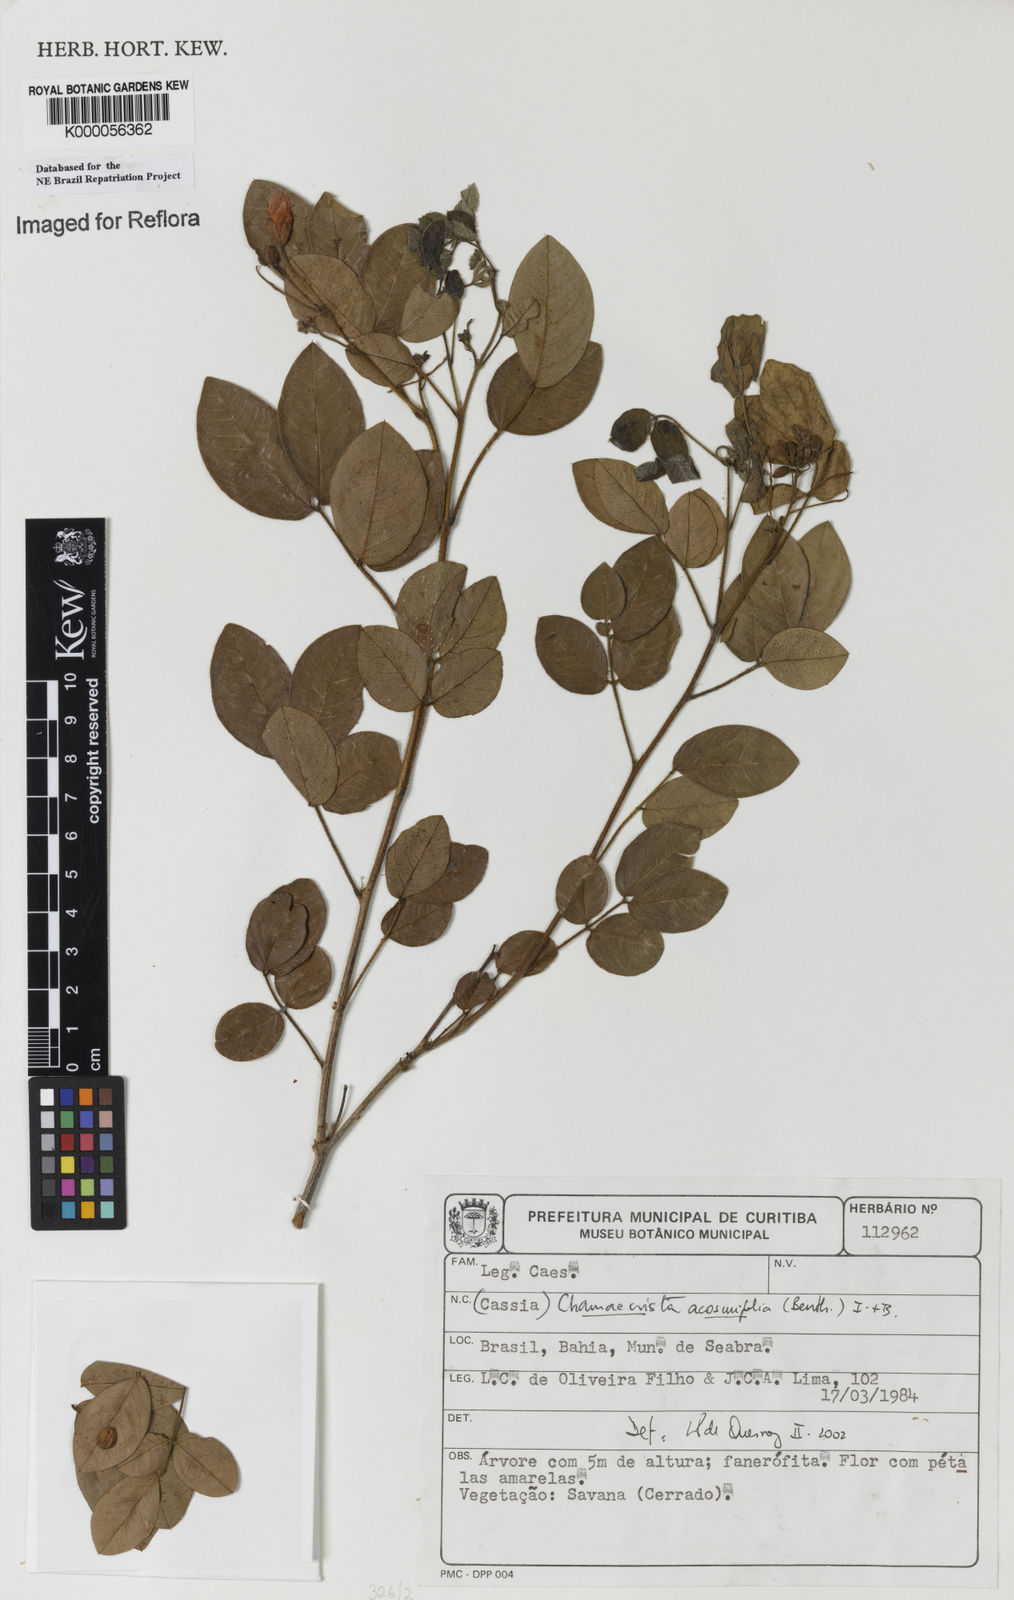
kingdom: Plantae
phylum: Tracheophyta
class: Magnoliopsida
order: Fabales
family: Fabaceae
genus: Chamaecrista
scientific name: Chamaecrista acosmifolia
